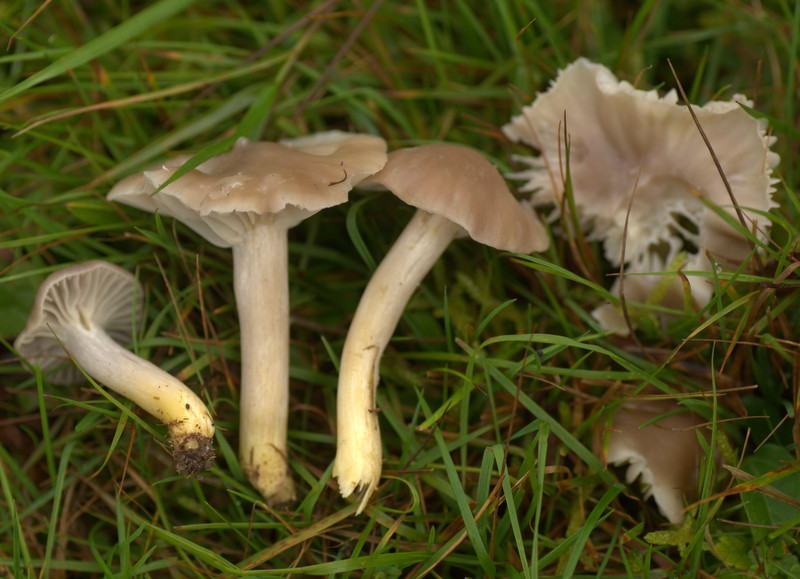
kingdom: Fungi
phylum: Basidiomycota
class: Agaricomycetes
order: Agaricales
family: Hygrophoraceae
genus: Cuphophyllus
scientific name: Cuphophyllus flavipes
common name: gulfodet vokshat
